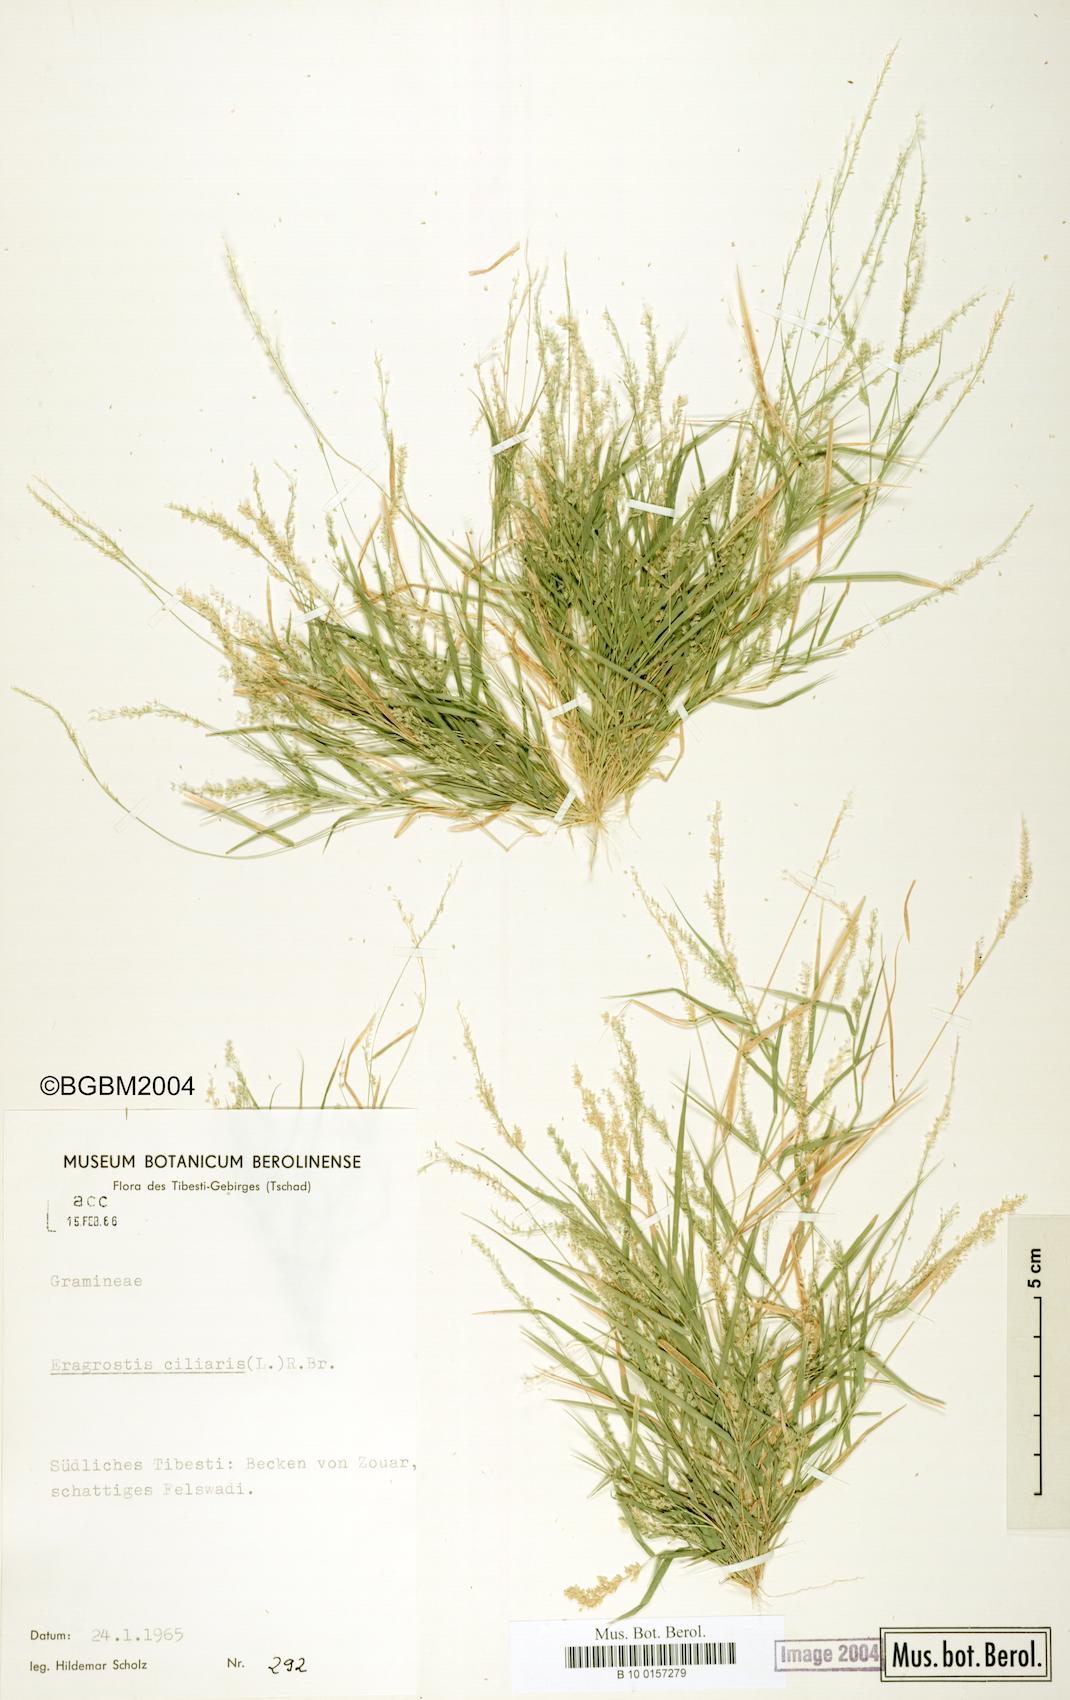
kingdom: Plantae
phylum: Tracheophyta
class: Liliopsida
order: Poales
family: Poaceae
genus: Eragrostis
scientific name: Eragrostis ciliaris
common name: Gophertail lovegrass
